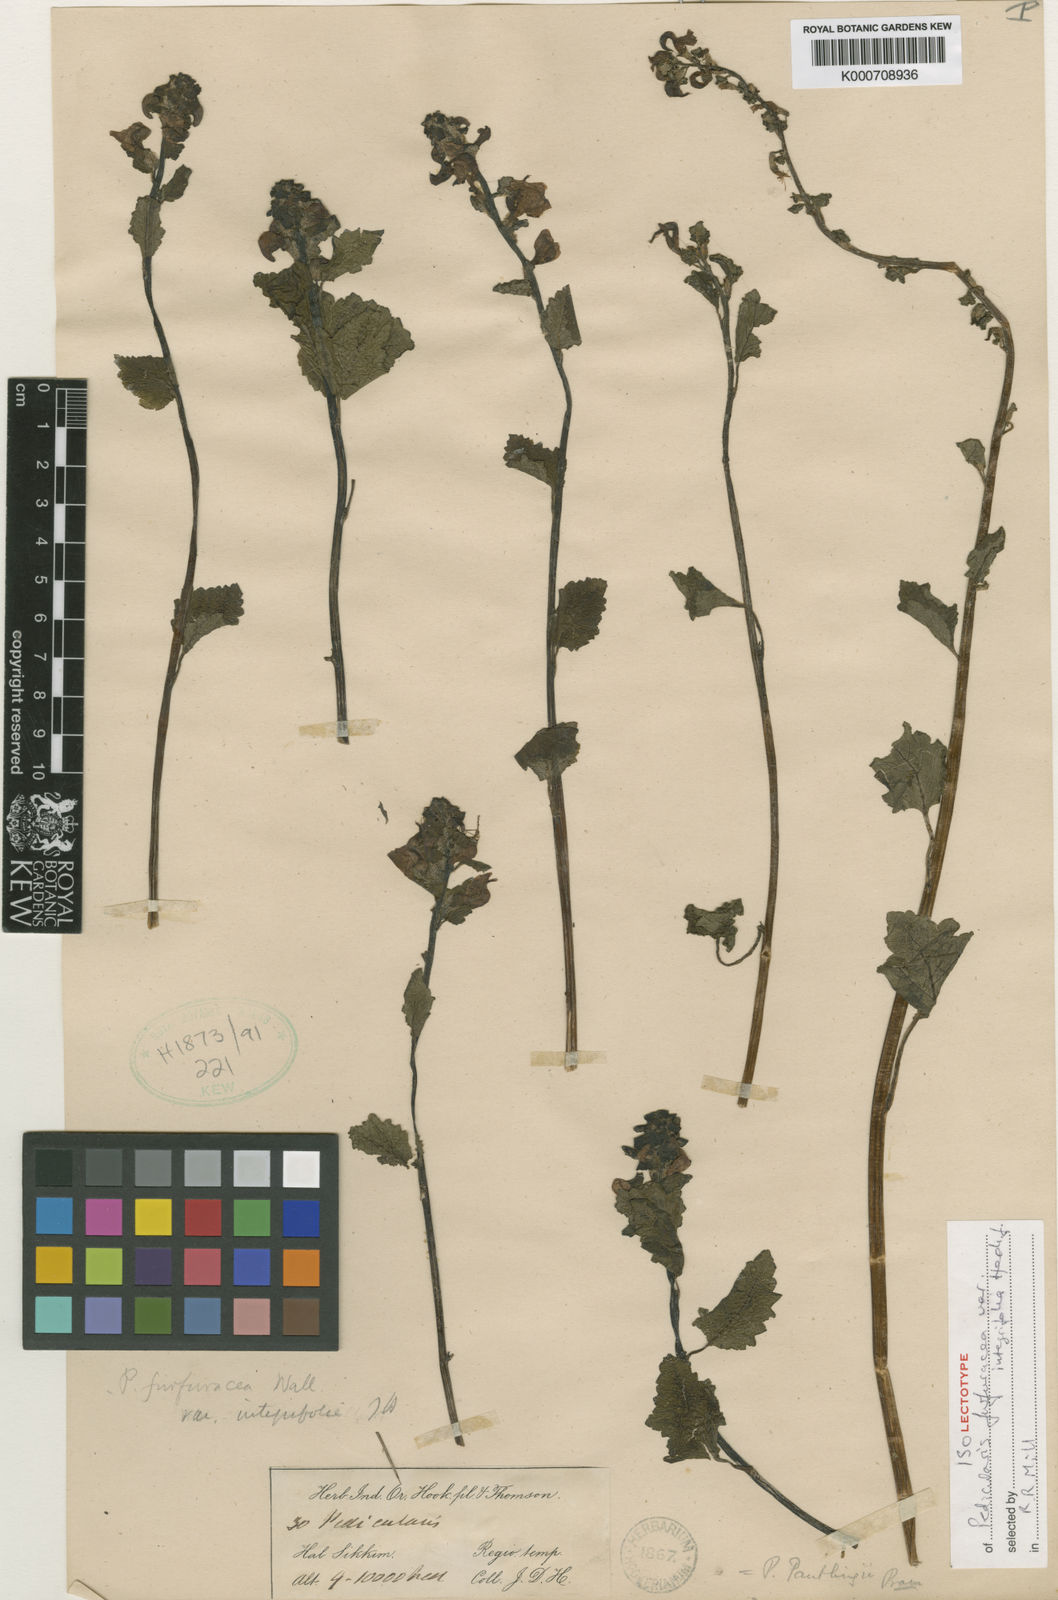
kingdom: Plantae
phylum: Tracheophyta
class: Magnoliopsida
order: Lamiales
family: Orobanchaceae
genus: Pedicularis
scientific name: Pedicularis pantlingii
